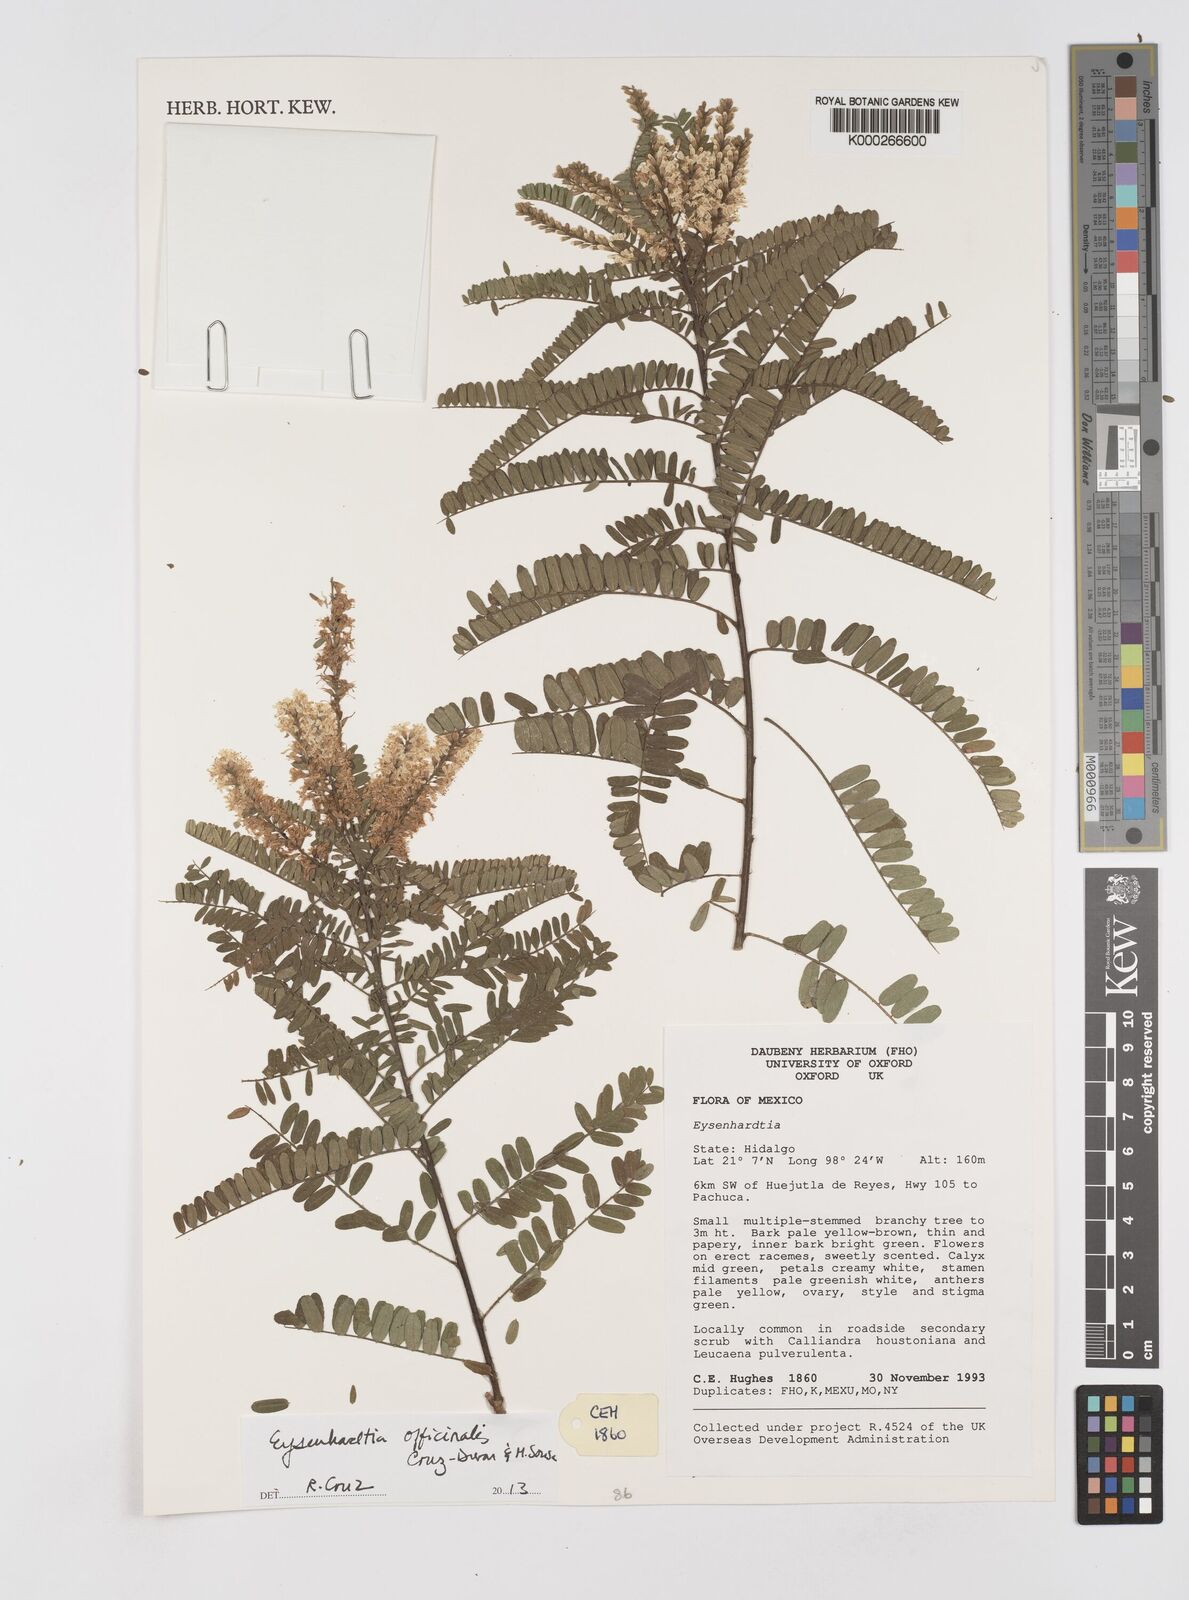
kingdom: Plantae
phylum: Tracheophyta
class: Magnoliopsida
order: Fabales
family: Fabaceae
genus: Eysenhardtia
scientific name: Eysenhardtia
